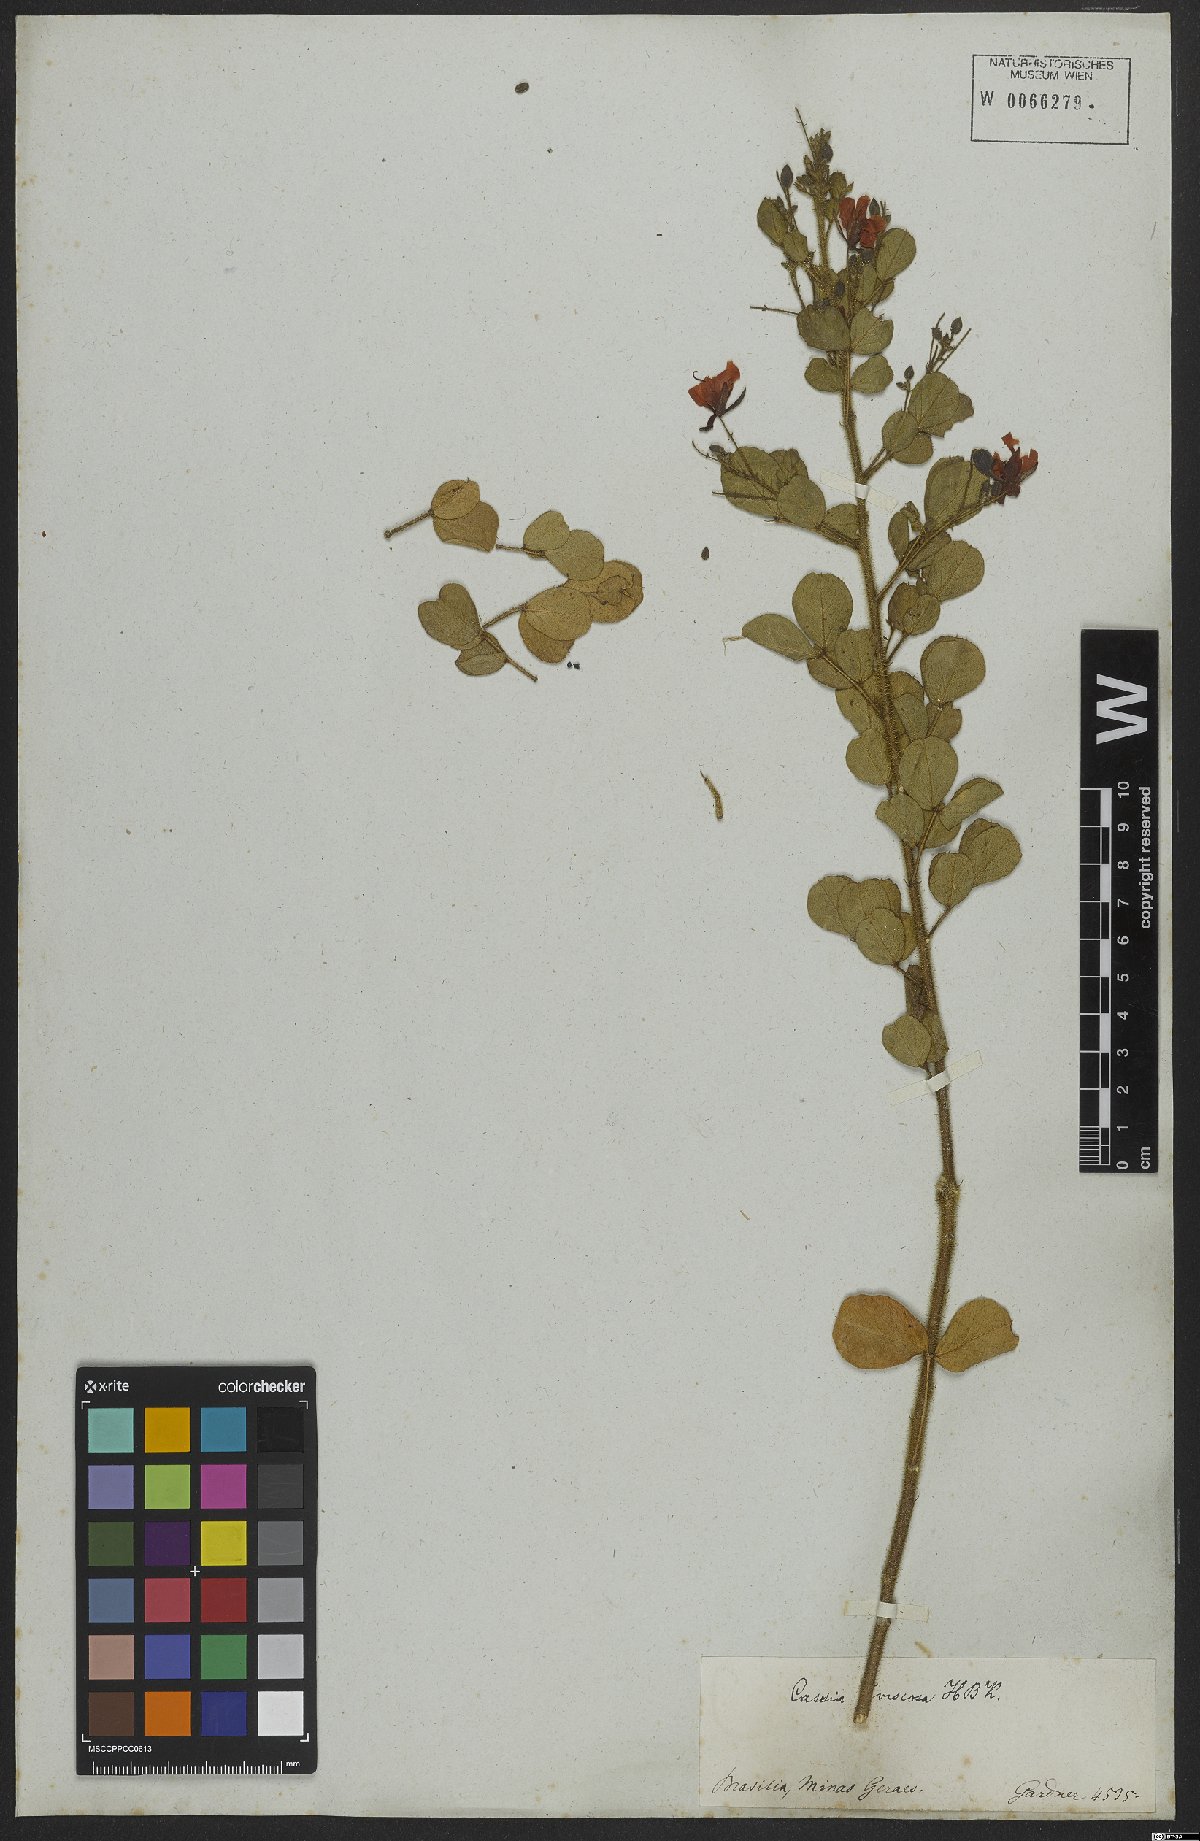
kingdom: Plantae
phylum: Tracheophyta
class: Magnoliopsida
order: Fabales
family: Fabaceae
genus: Chamaecrista
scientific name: Chamaecrista viscosa
